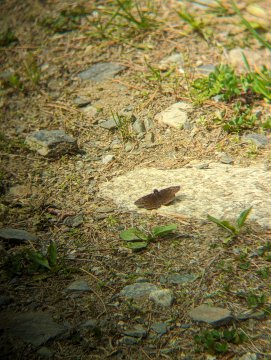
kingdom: Animalia
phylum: Arthropoda
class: Insecta
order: Lepidoptera
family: Hesperiidae
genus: Gesta
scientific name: Gesta
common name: Juvenal's Duskywing
